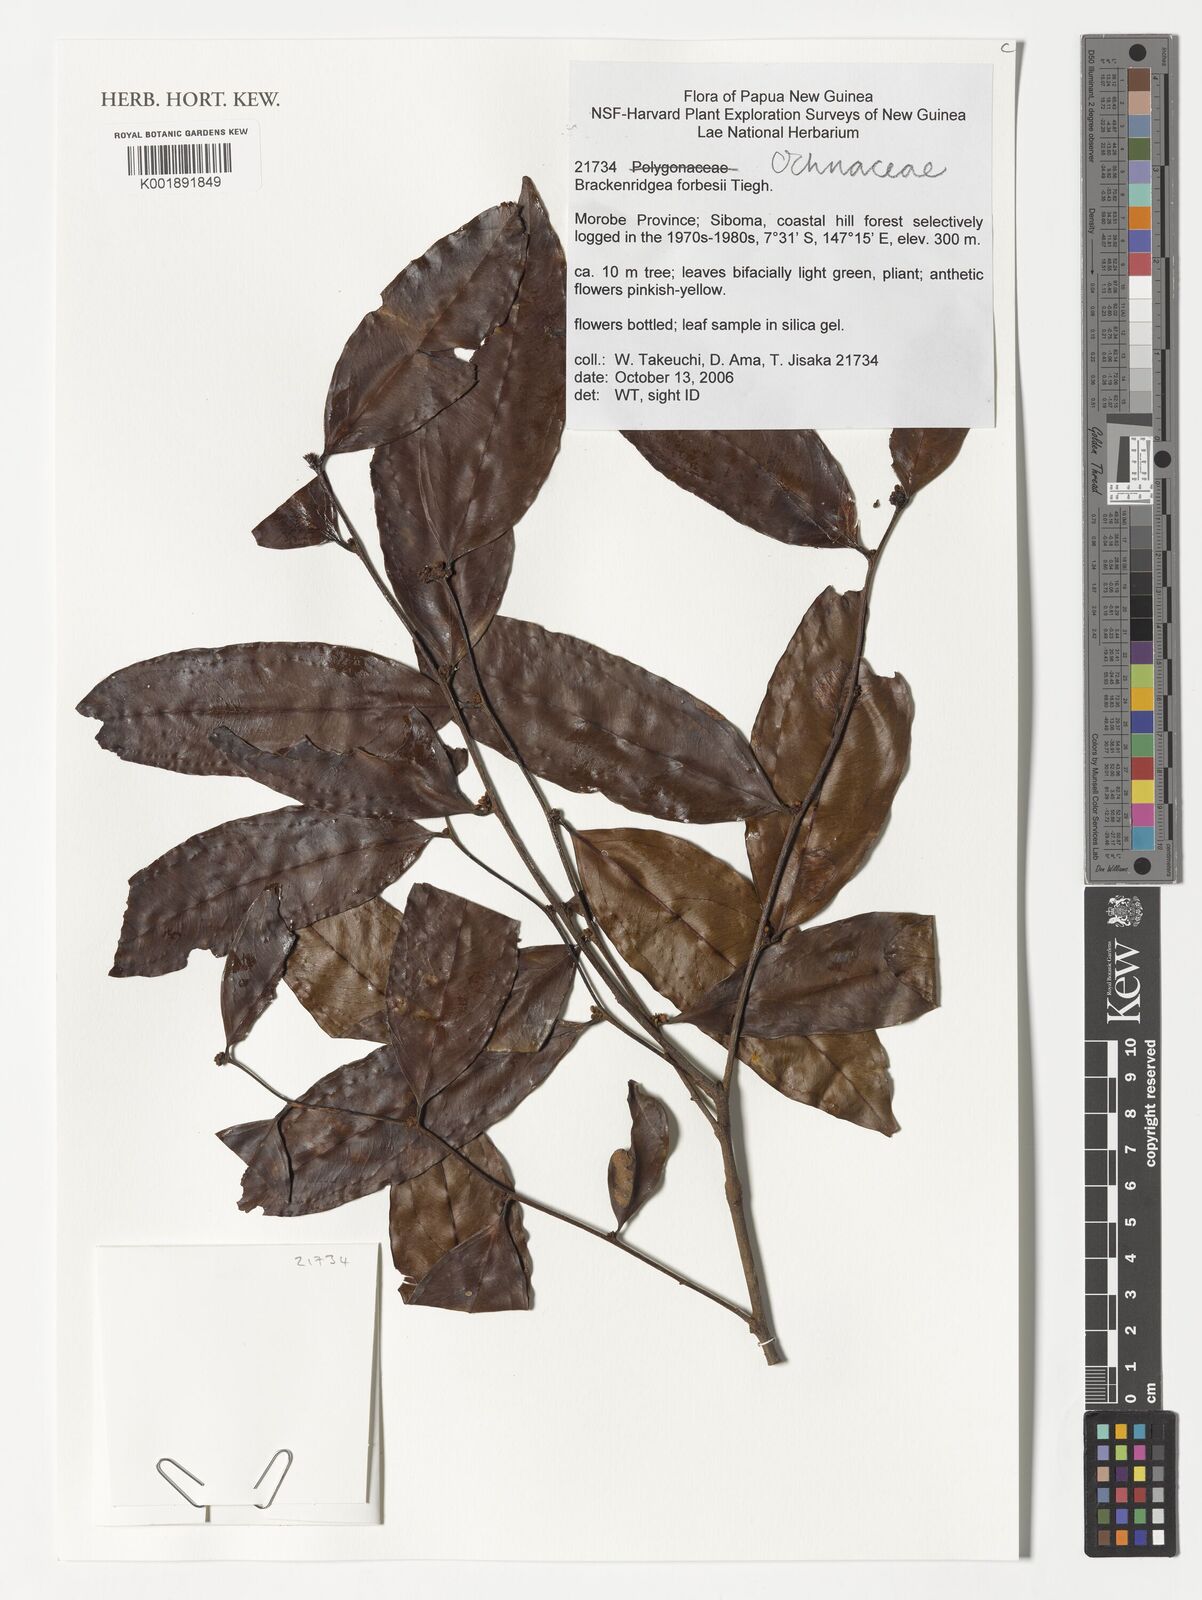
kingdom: Plantae
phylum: Tracheophyta
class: Magnoliopsida
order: Malpighiales
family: Ochnaceae
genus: Brackenridgea
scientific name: Brackenridgea forbesii
